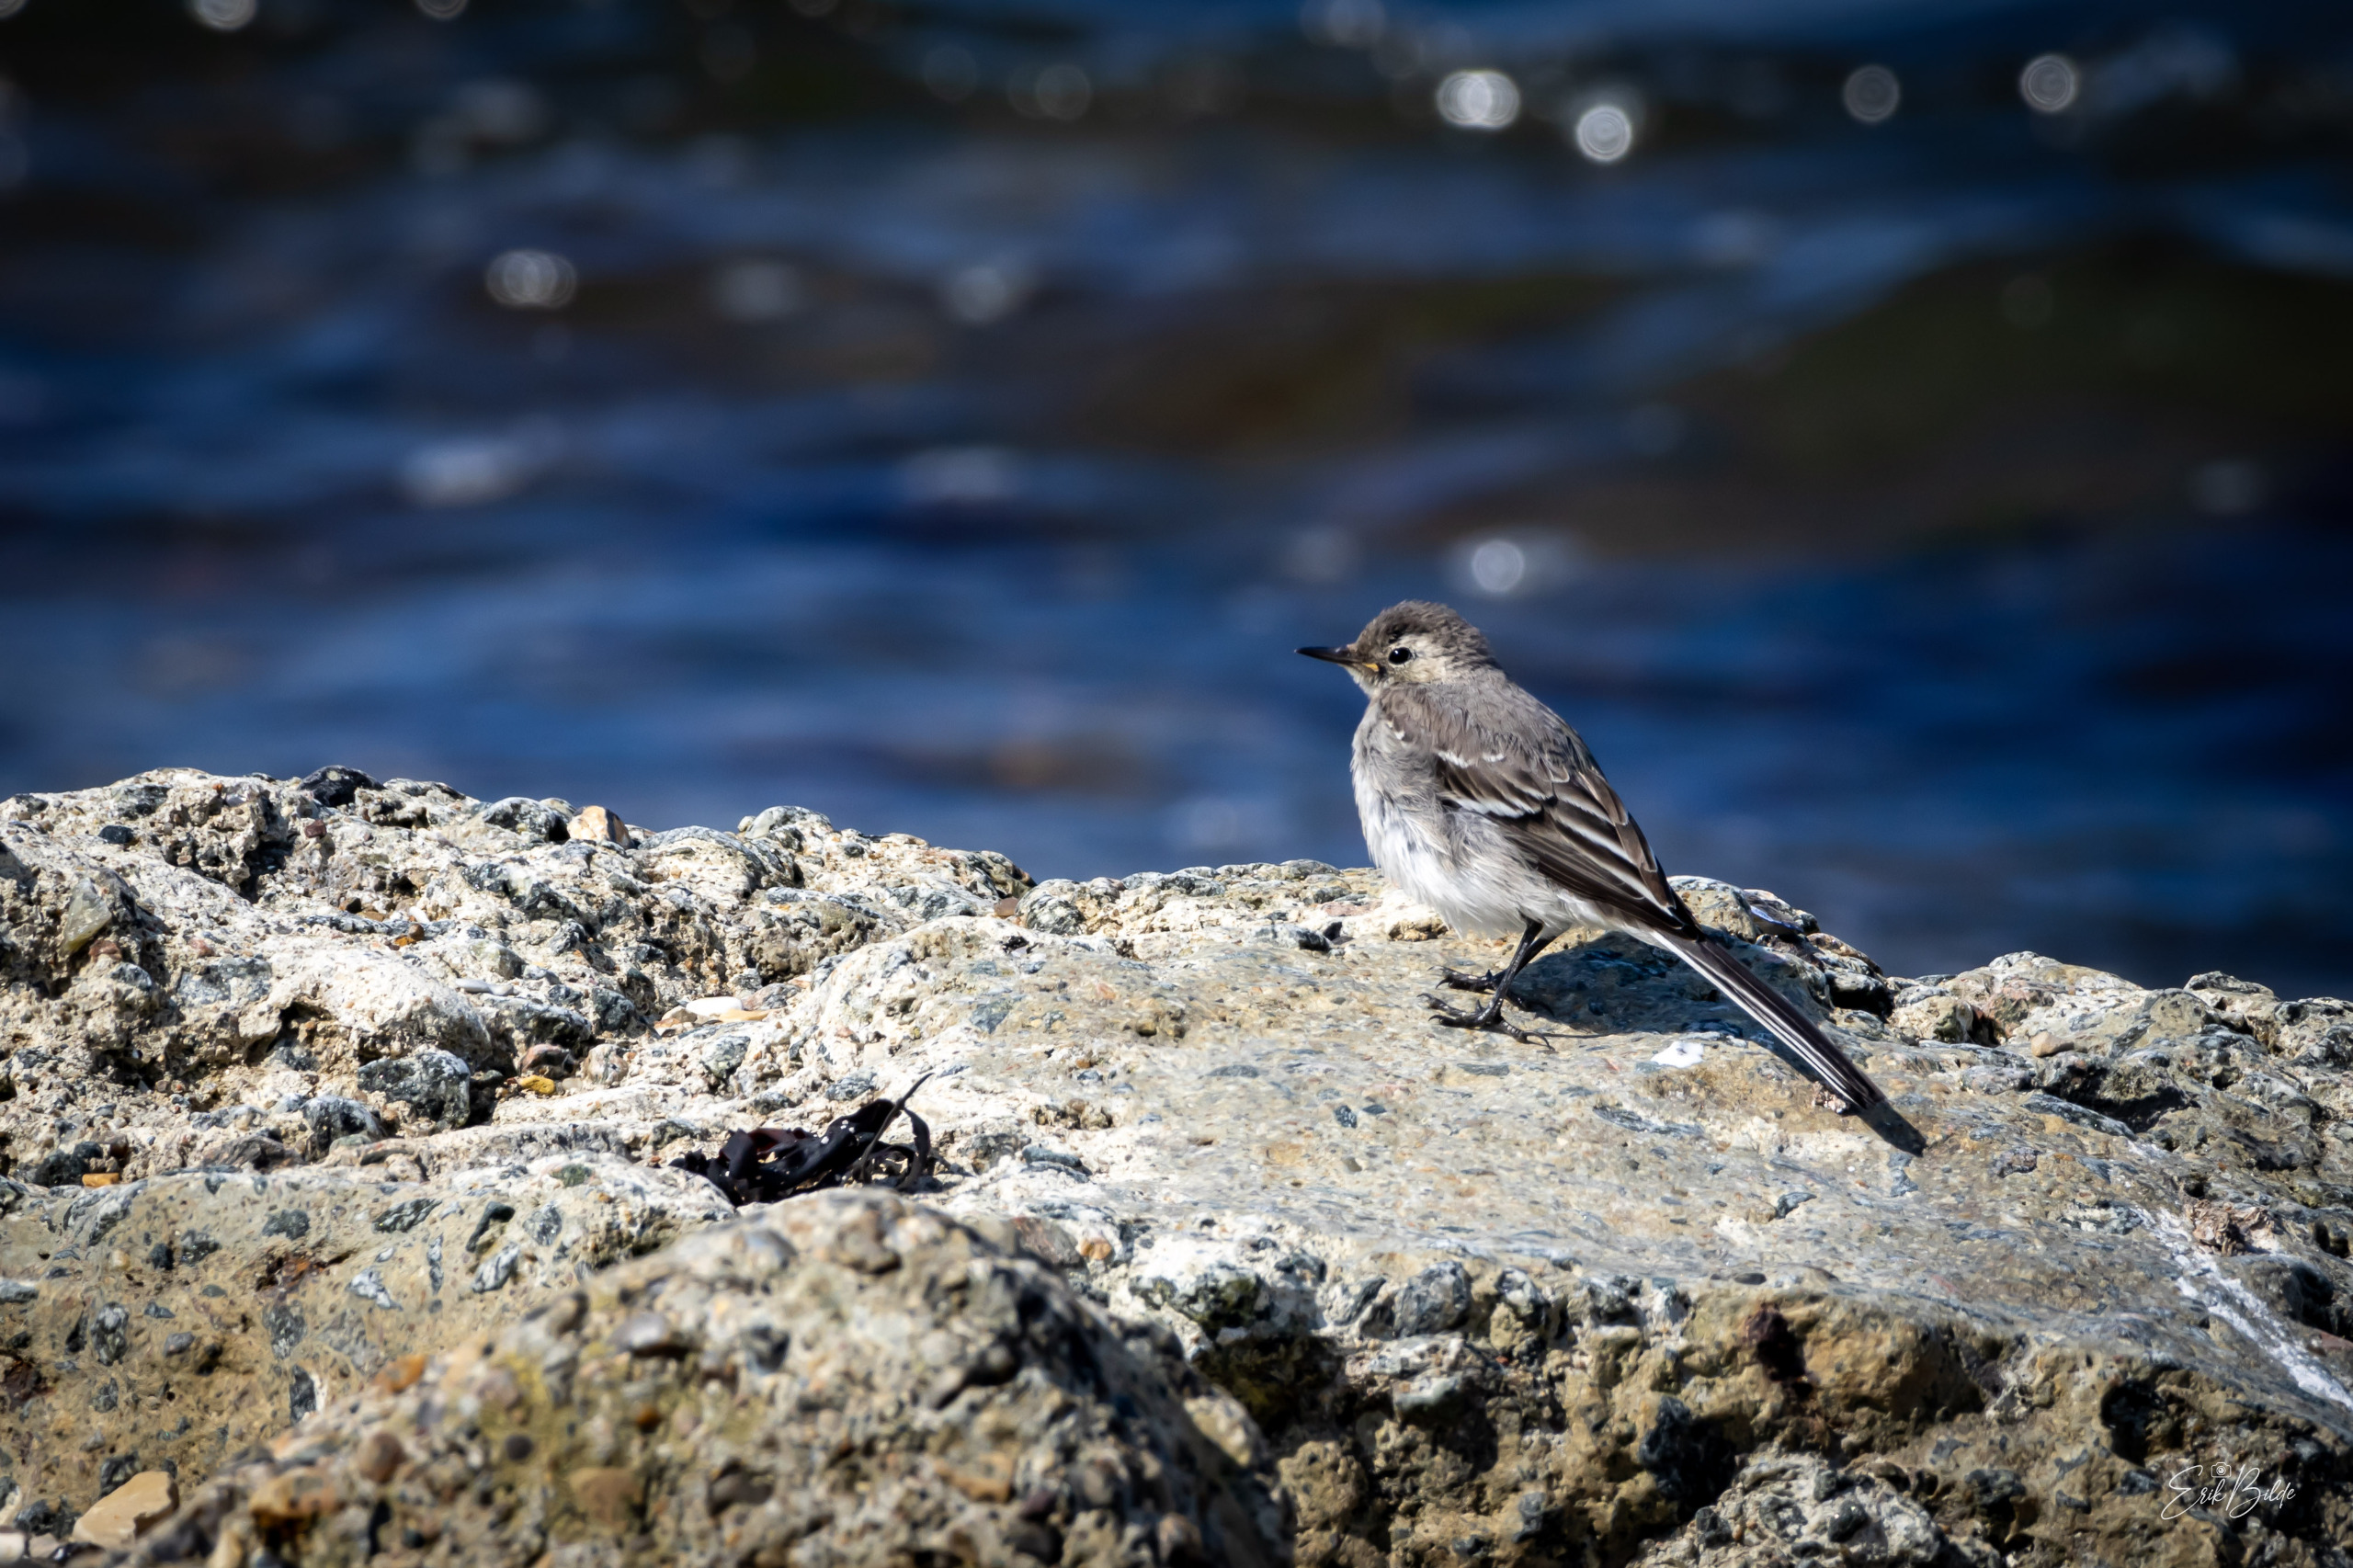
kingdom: Animalia
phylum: Chordata
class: Aves
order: Passeriformes
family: Motacillidae
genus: Motacilla
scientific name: Motacilla alba
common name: Hvid vipstjert
